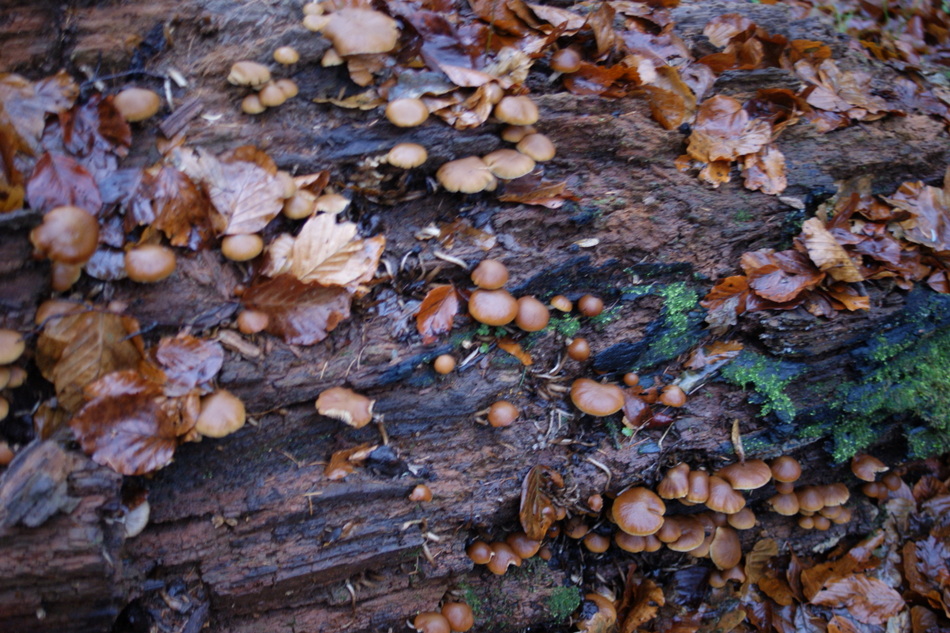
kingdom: Fungi
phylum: Basidiomycota
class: Agaricomycetes
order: Agaricales
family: Psathyrellaceae
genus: Psathyrella
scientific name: Psathyrella piluliformis
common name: lysstokket mørkhat
